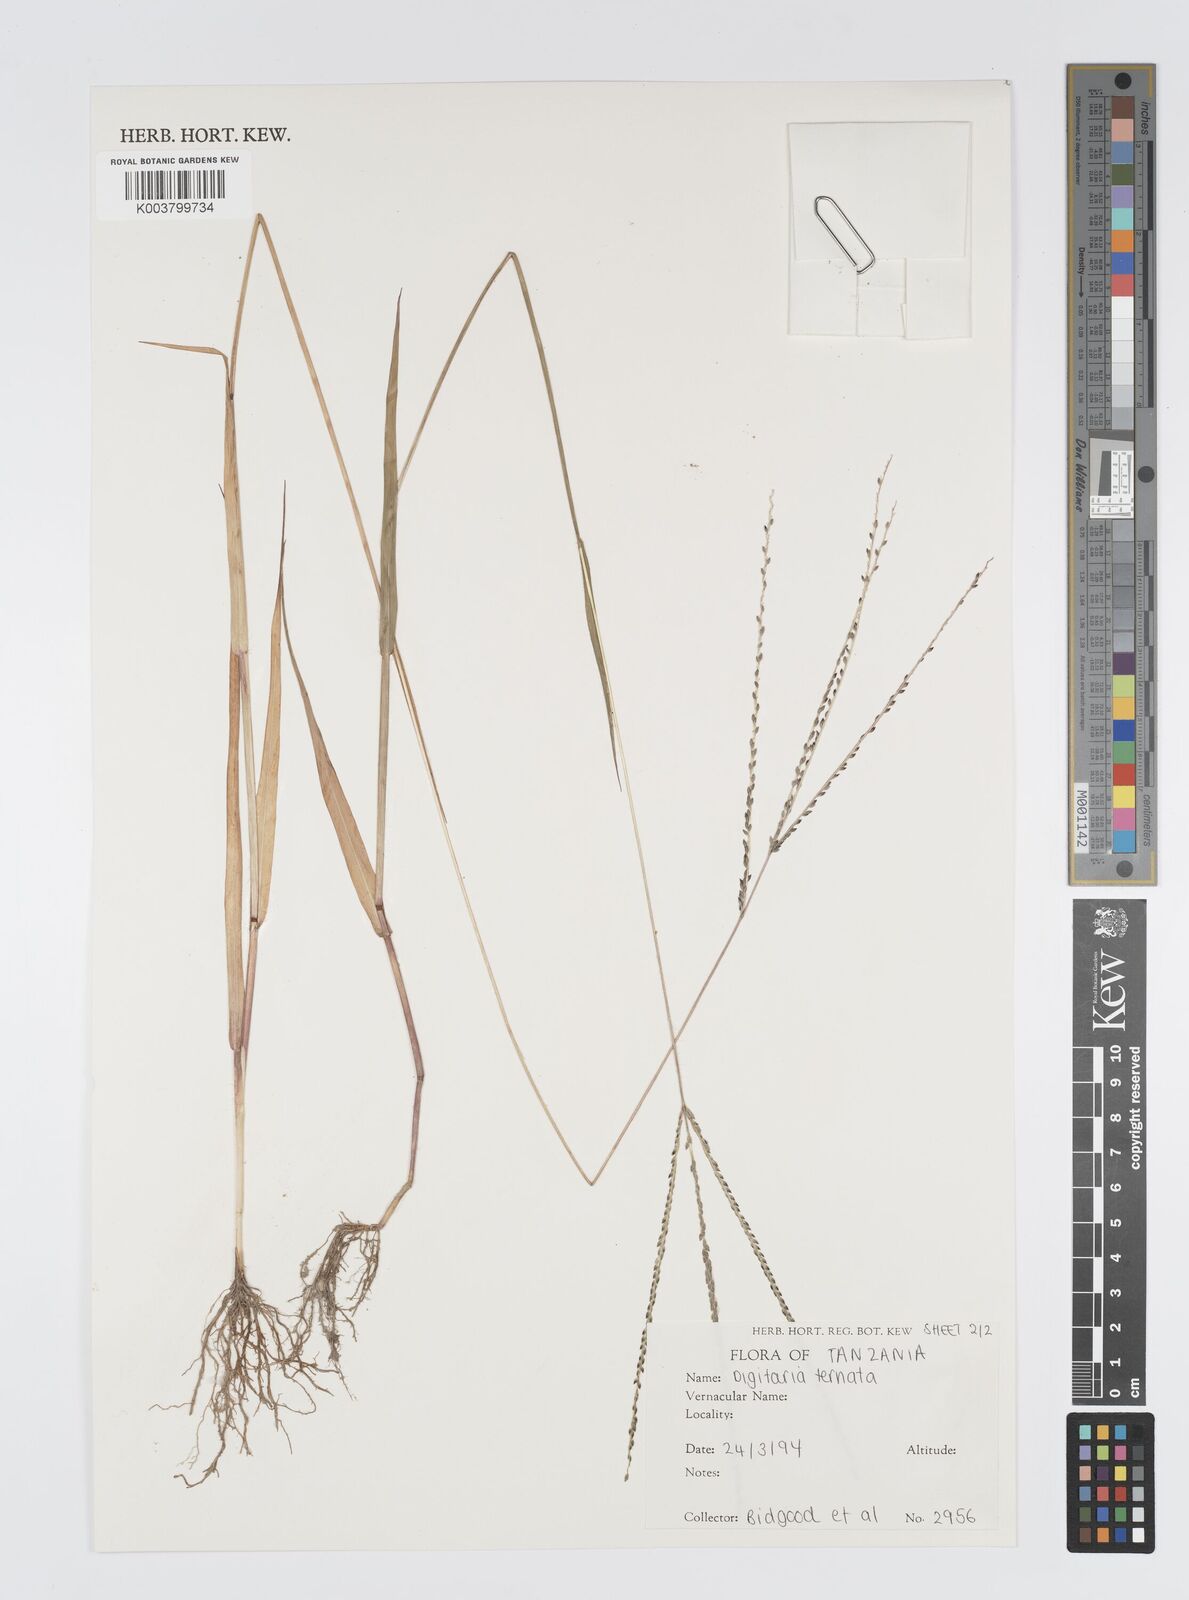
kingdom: Plantae
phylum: Tracheophyta
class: Liliopsida
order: Poales
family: Poaceae
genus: Digitaria
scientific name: Digitaria ternata
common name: Blackseed crabgrass
